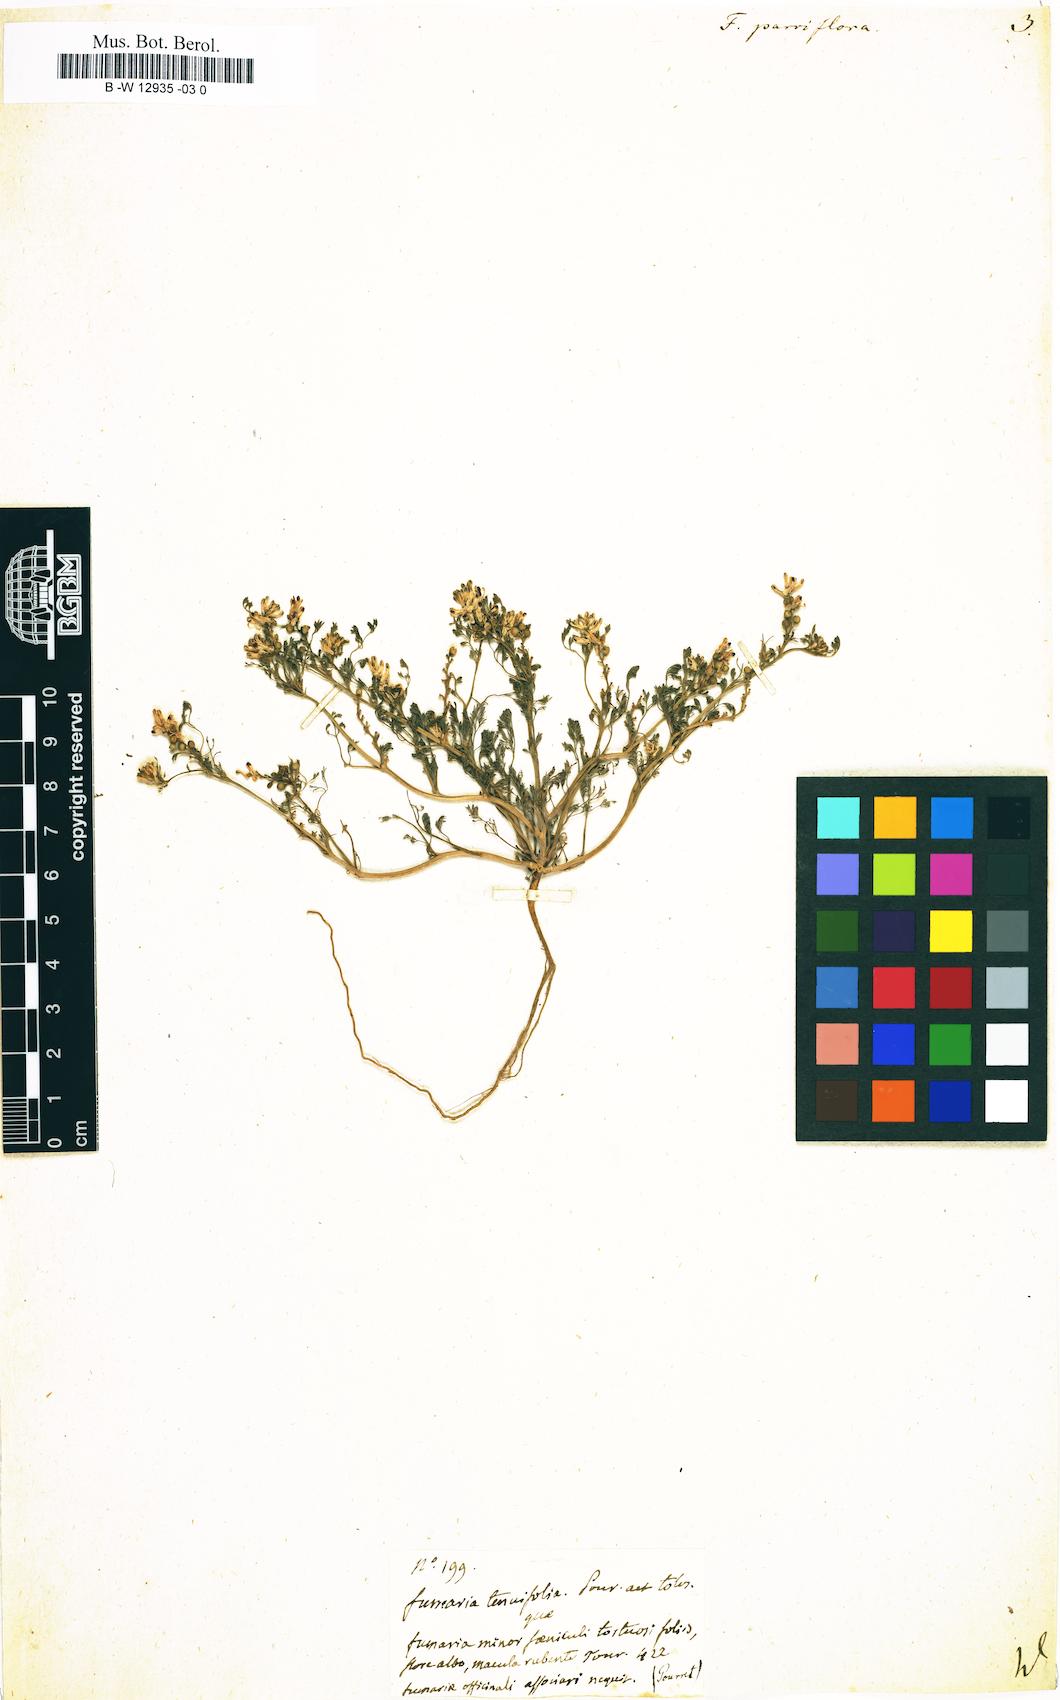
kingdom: Plantae
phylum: Tracheophyta
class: Magnoliopsida
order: Ranunculales
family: Papaveraceae
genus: Fumaria
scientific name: Fumaria parviflora
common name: Fine-leaved fumitory
